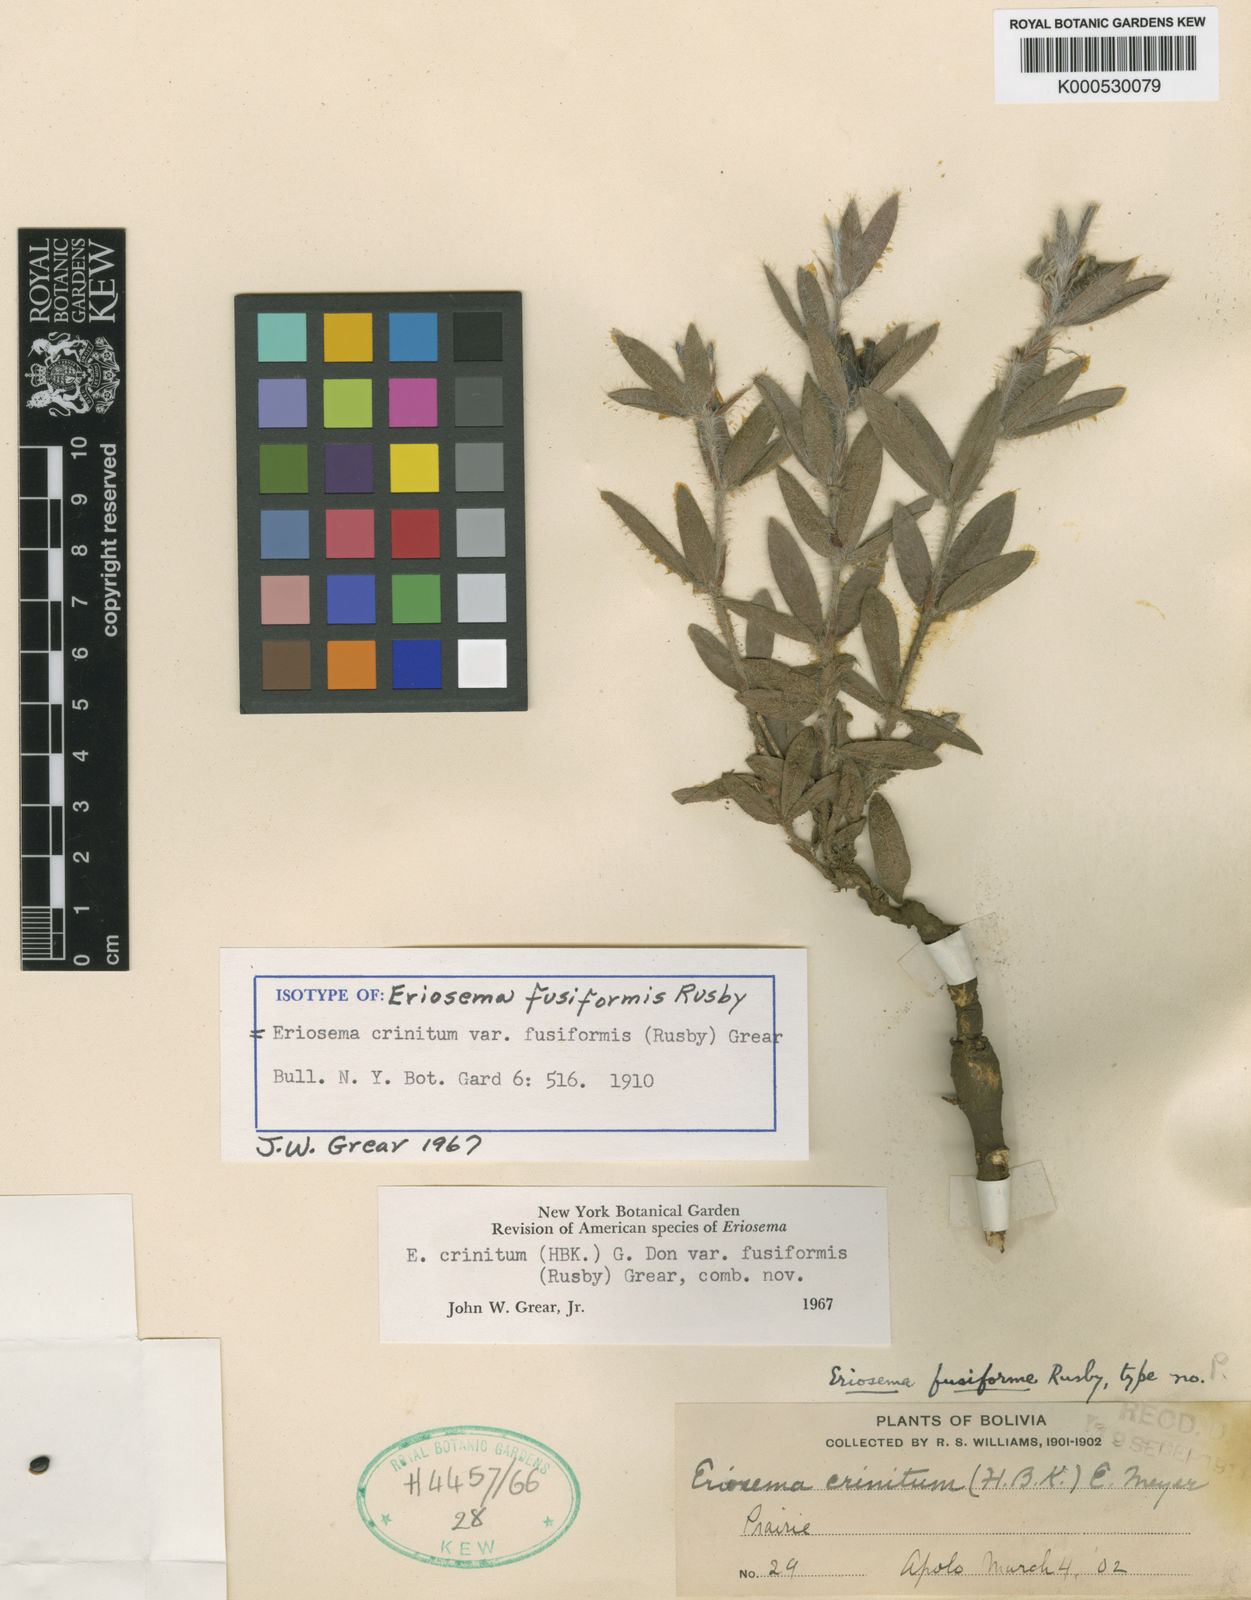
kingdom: Plantae
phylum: Tracheophyta
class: Magnoliopsida
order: Fabales
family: Fabaceae
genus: Eriosema
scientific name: Eriosema crinitum
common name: Sand pea
